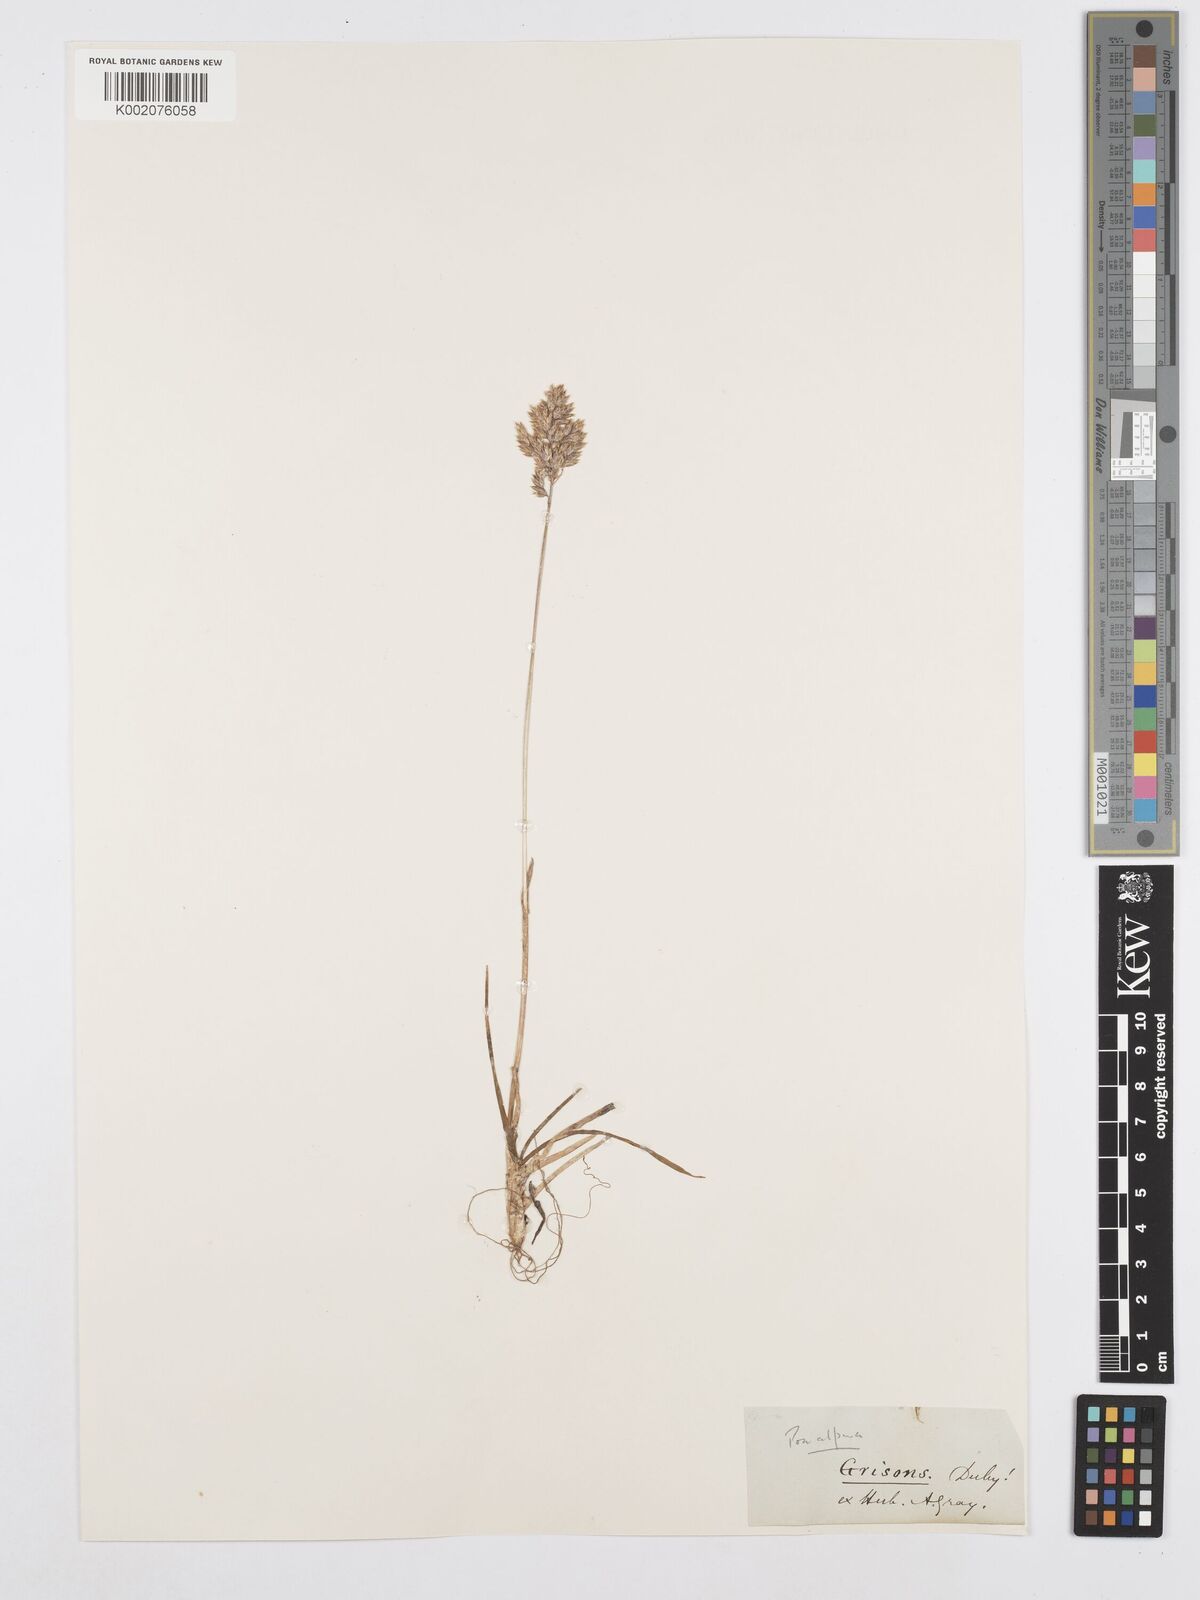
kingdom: Plantae
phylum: Tracheophyta
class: Liliopsida
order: Poales
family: Poaceae
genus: Poa
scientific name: Poa alpina
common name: Alpine bluegrass
